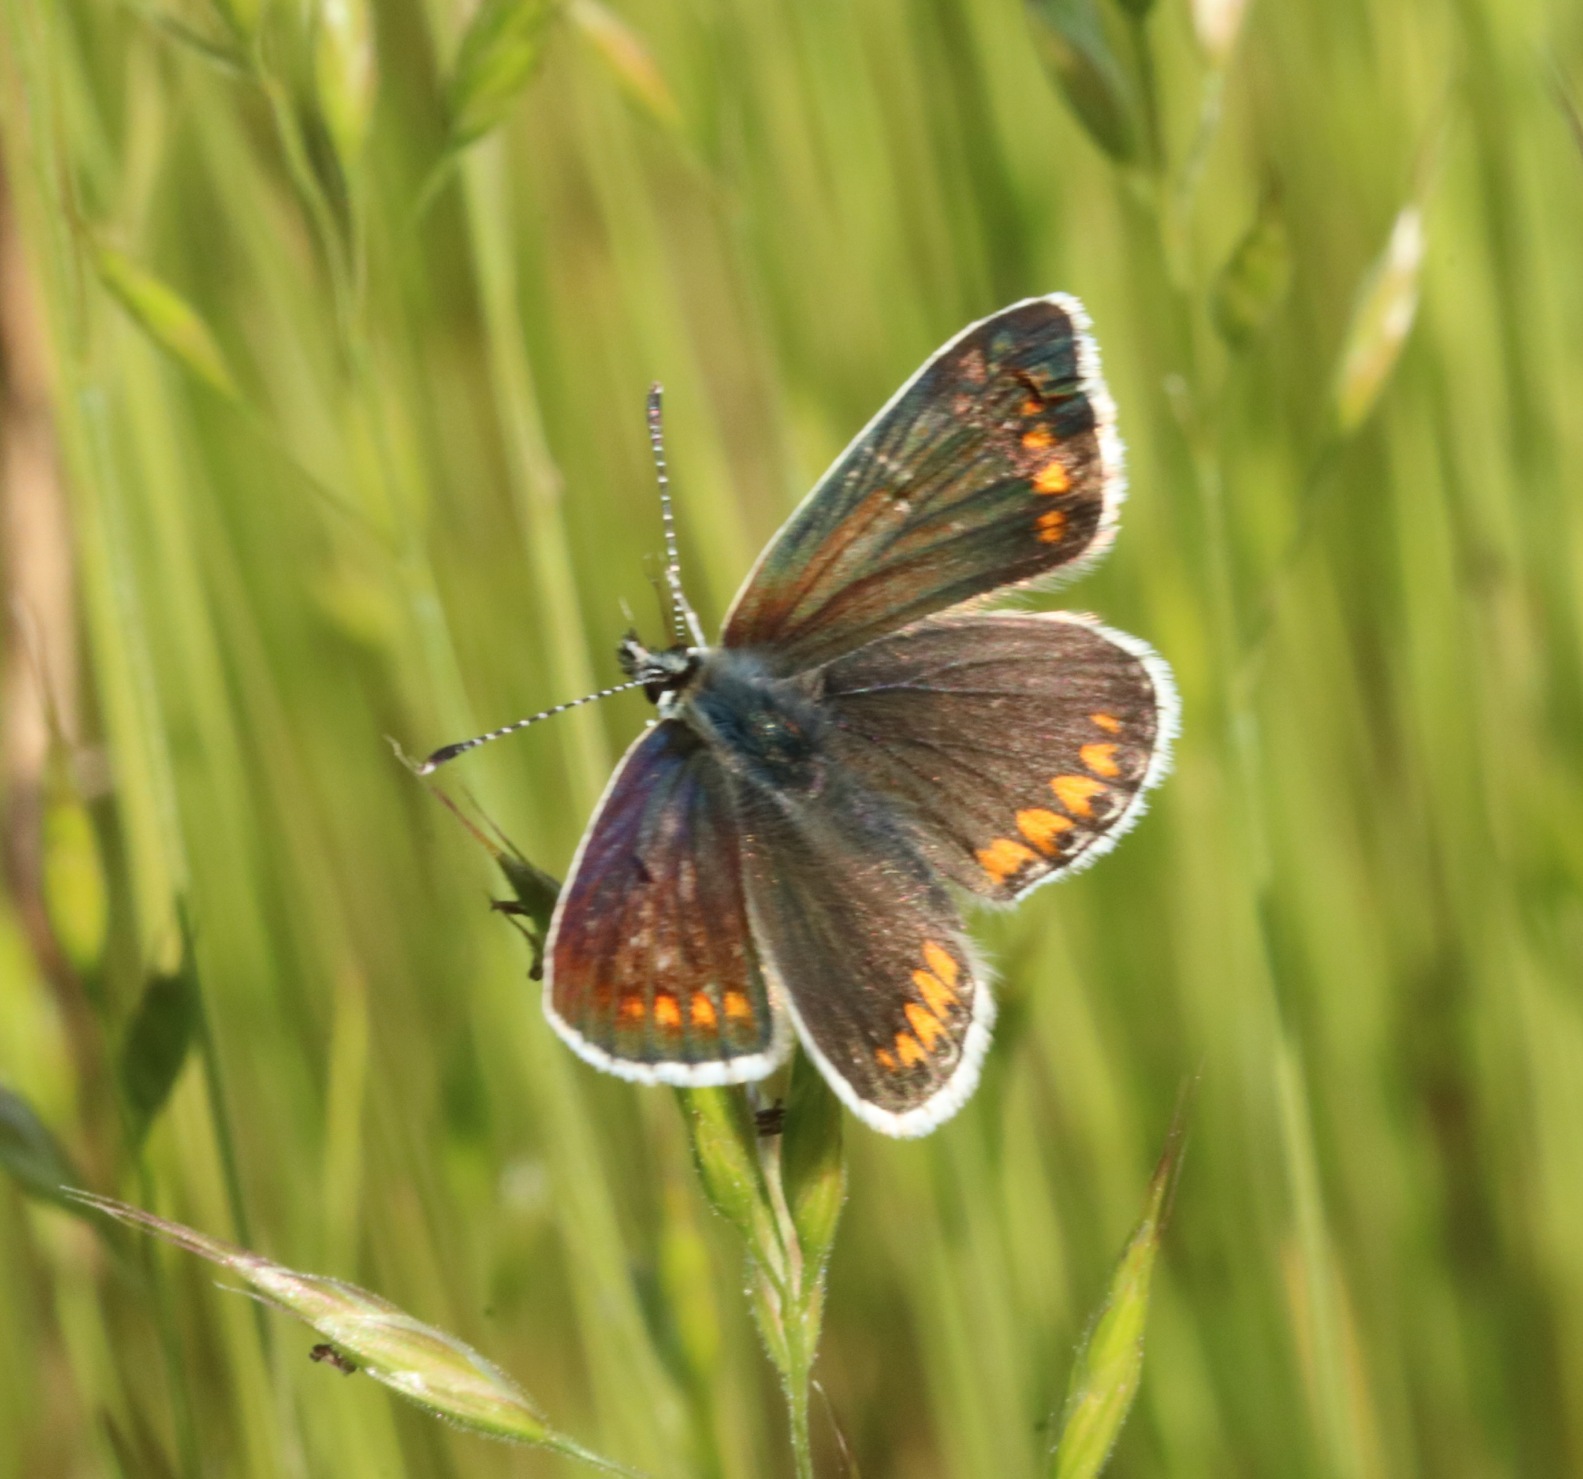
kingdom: Animalia
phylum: Arthropoda
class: Insecta
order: Lepidoptera
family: Lycaenidae
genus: Aricia
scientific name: Aricia agestis
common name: Rødplettet blåfugl
